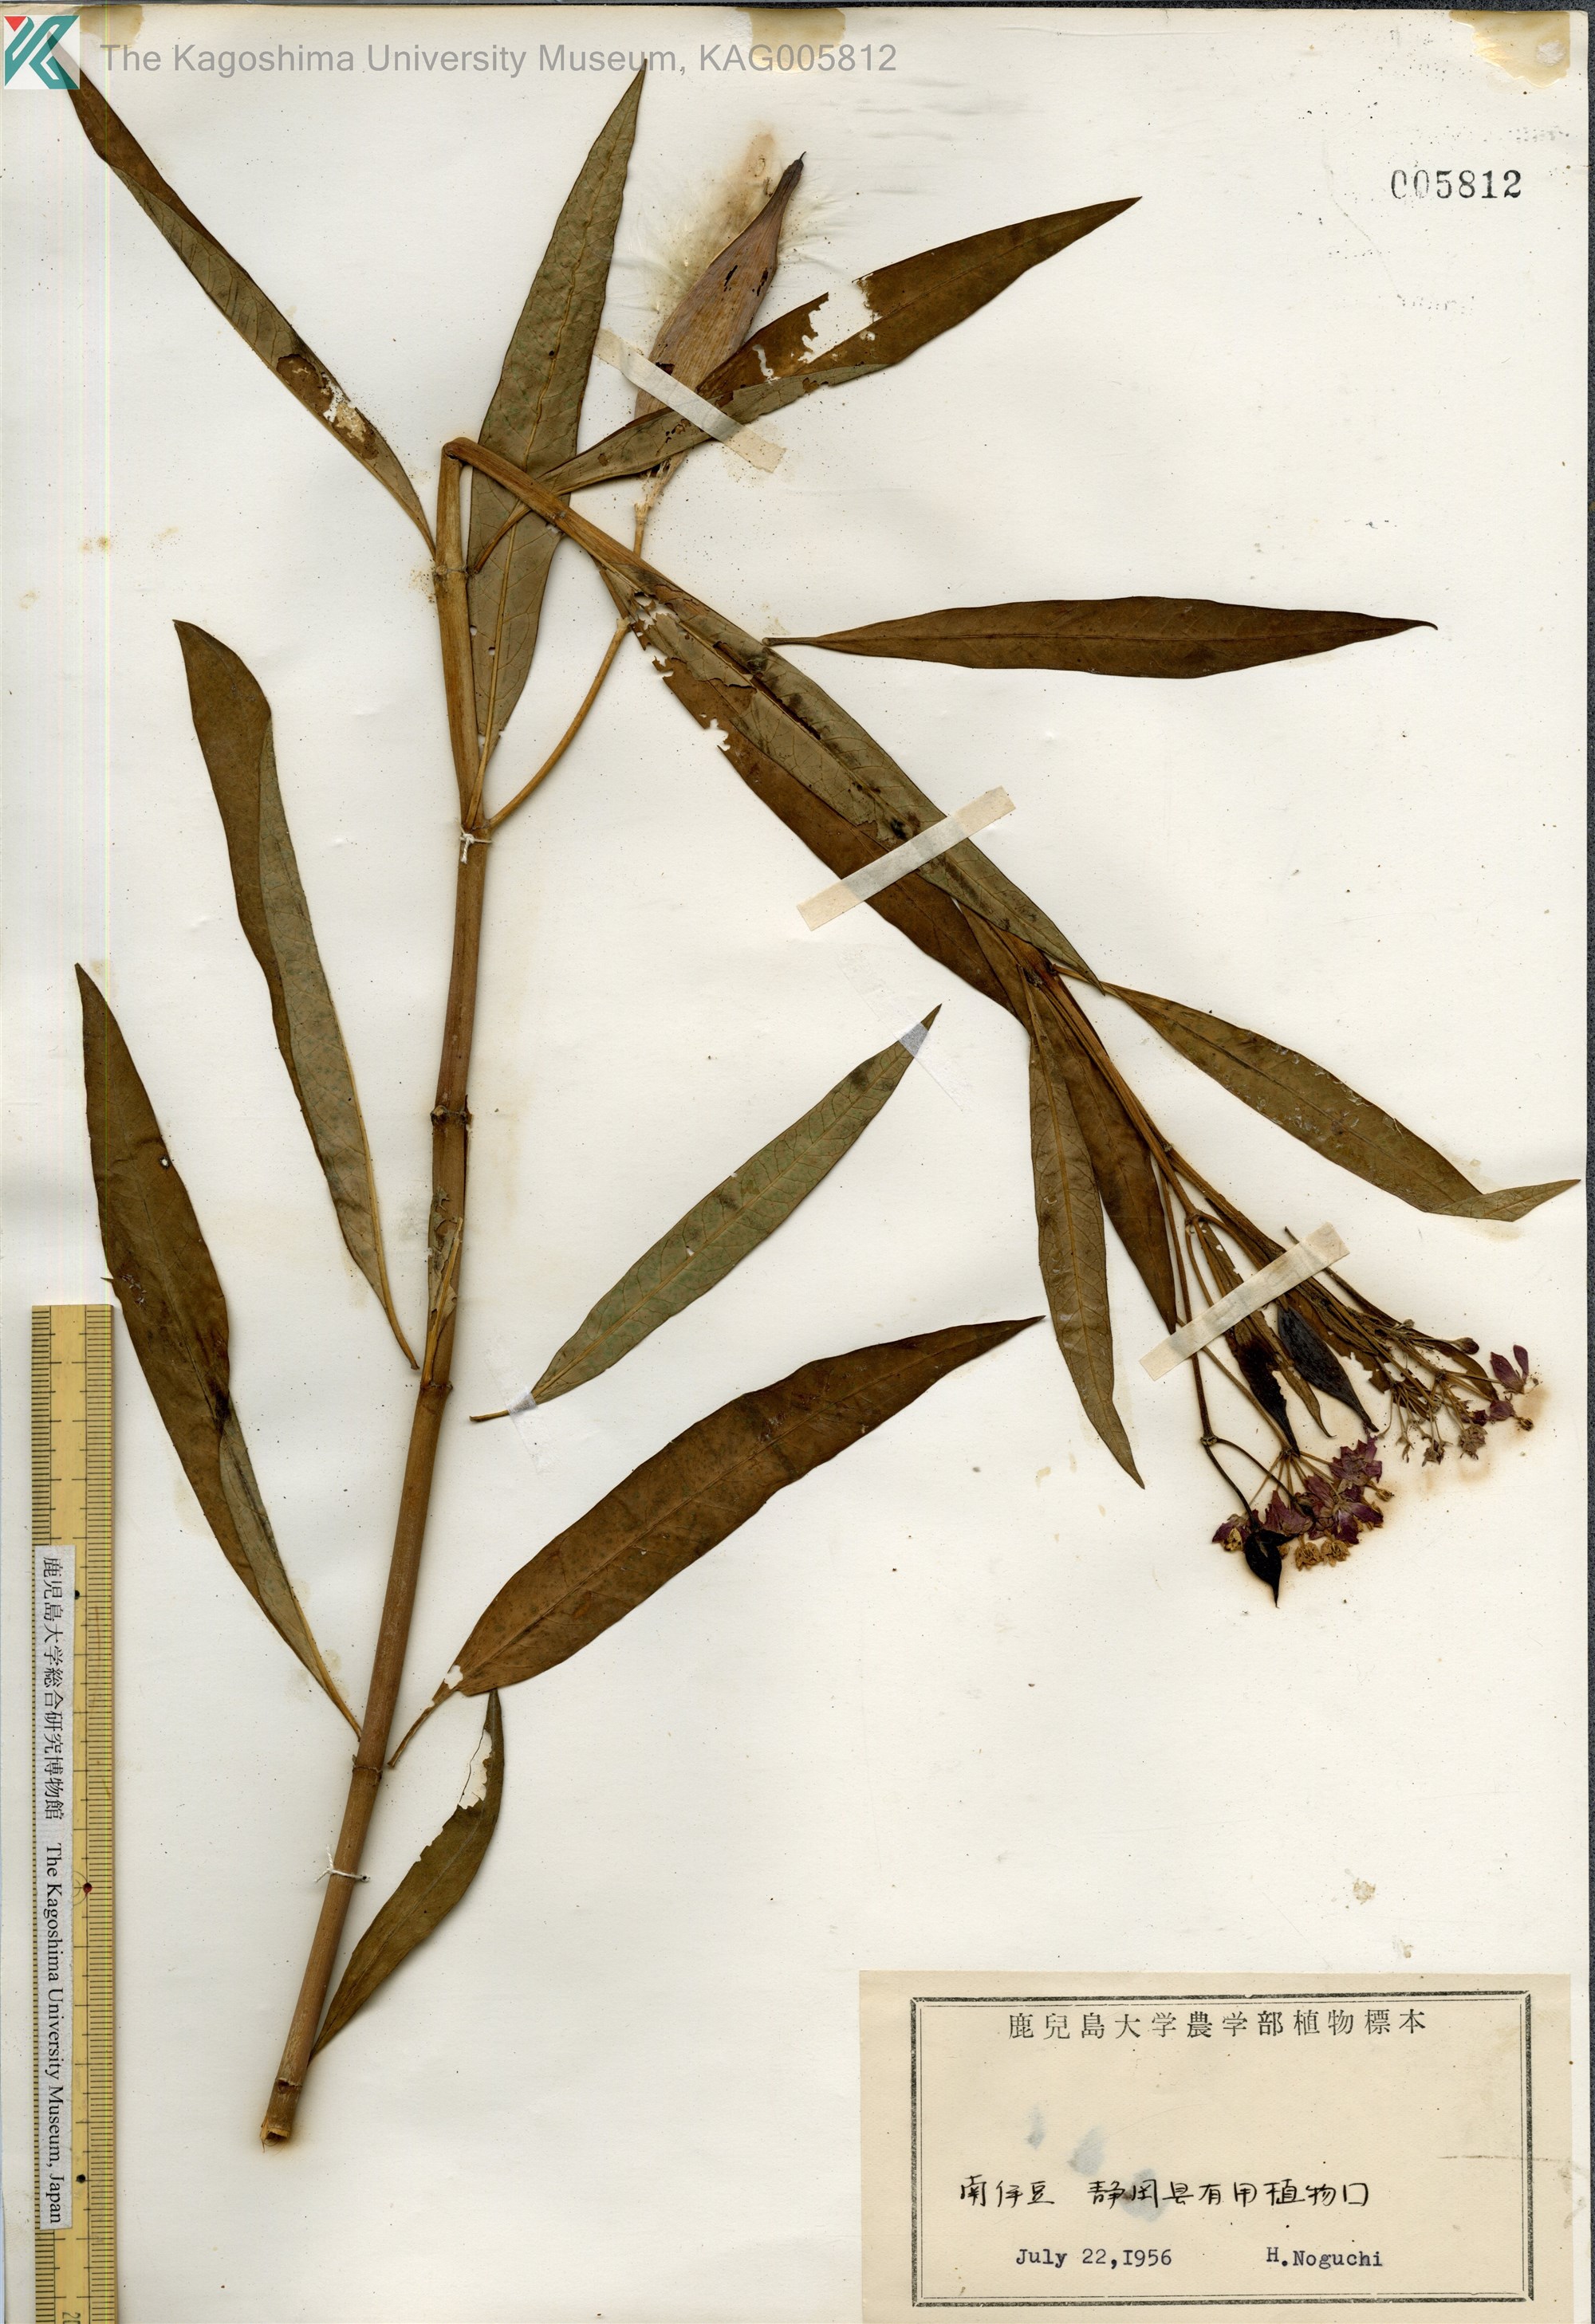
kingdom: Plantae
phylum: Tracheophyta
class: Magnoliopsida
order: Gentianales
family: Apocynaceae
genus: Asclepias
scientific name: Asclepias
